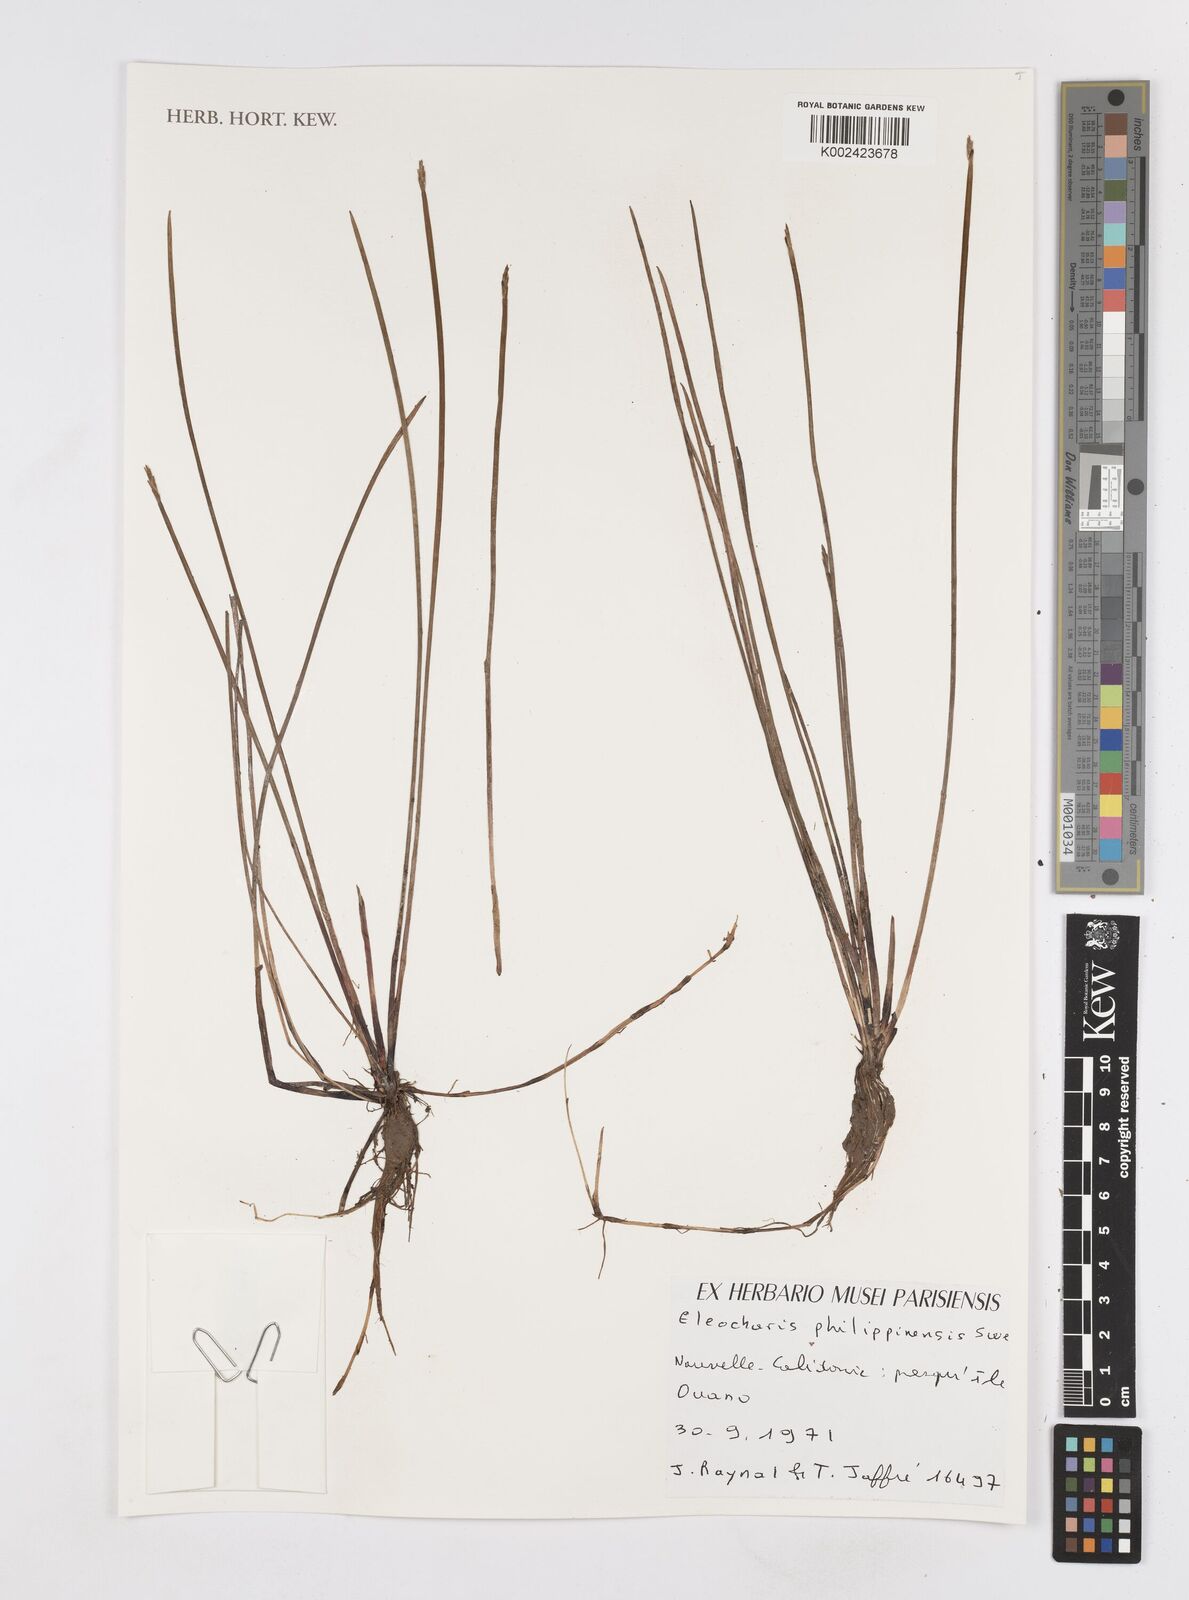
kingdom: Plantae
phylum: Tracheophyta
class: Liliopsida
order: Poales
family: Cyperaceae
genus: Eleocharis
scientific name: Eleocharis philippinensis
